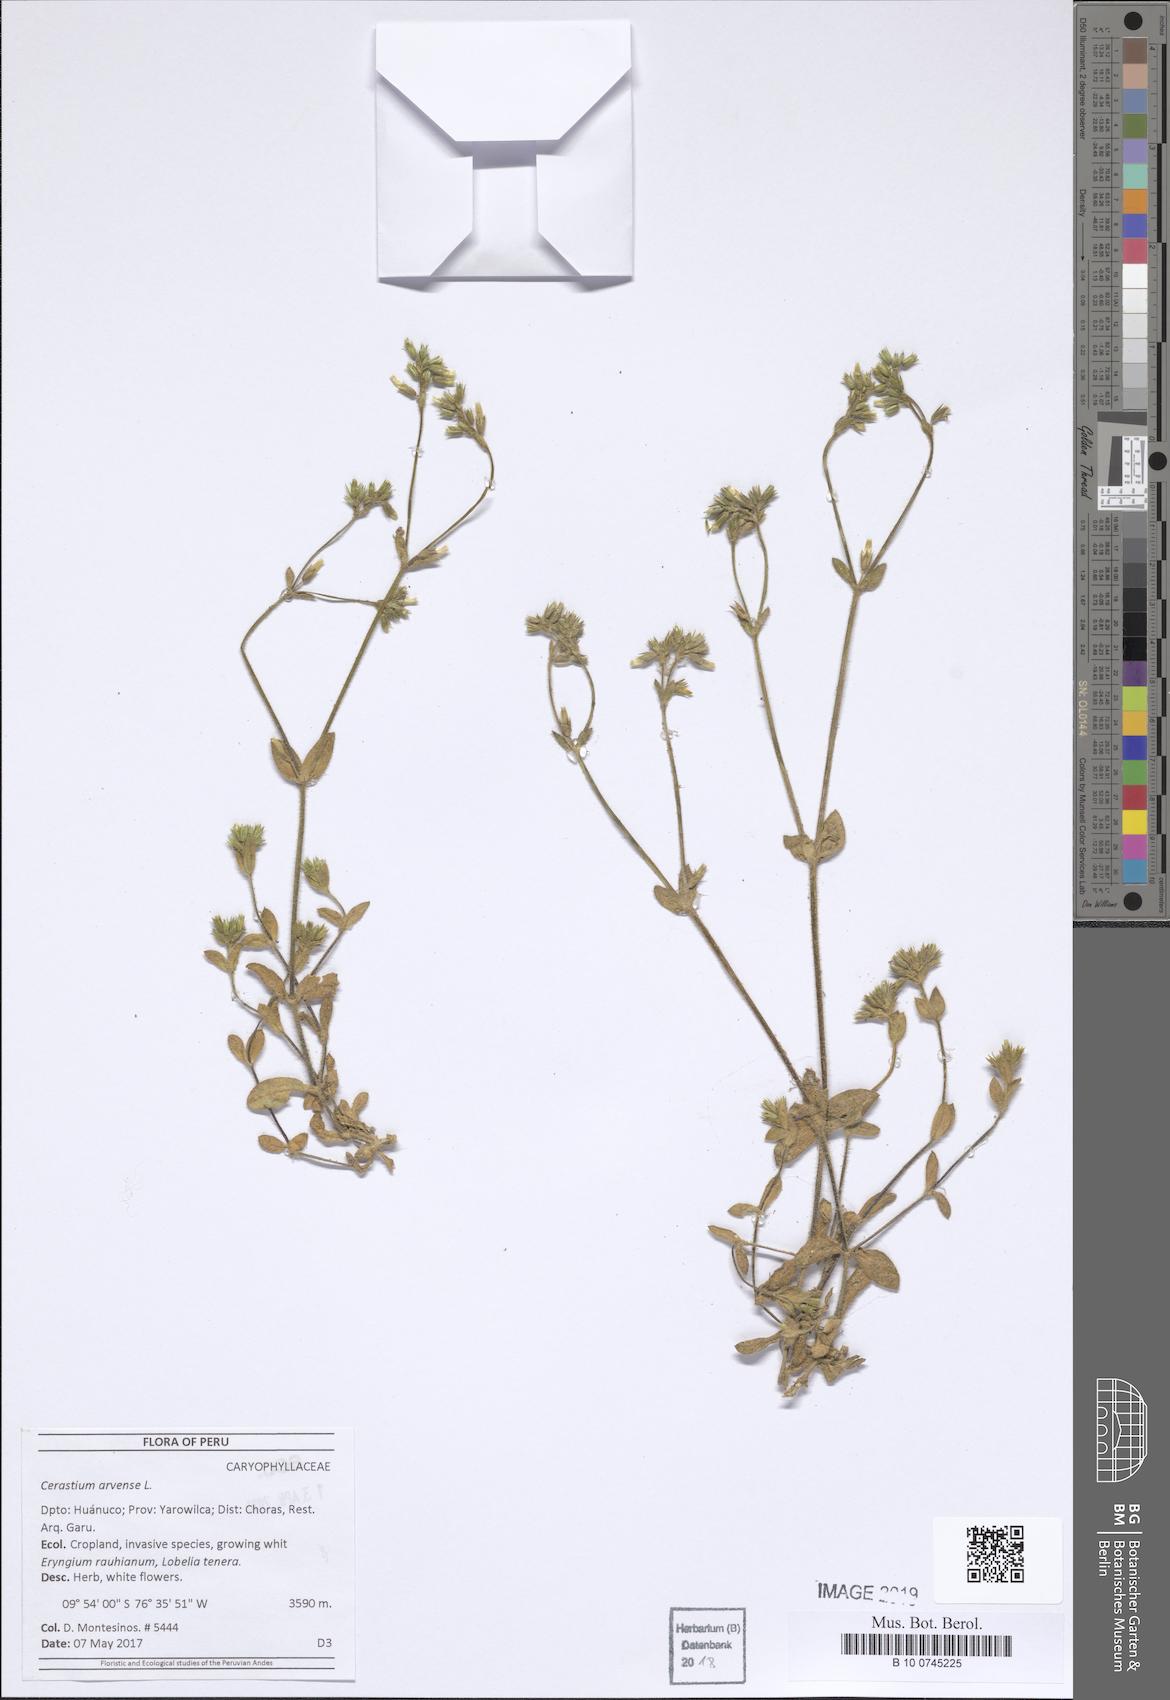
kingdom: Plantae
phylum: Tracheophyta
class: Magnoliopsida
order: Caryophyllales
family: Caryophyllaceae
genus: Cerastium
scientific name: Cerastium arvense
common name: Field mouse-ear
